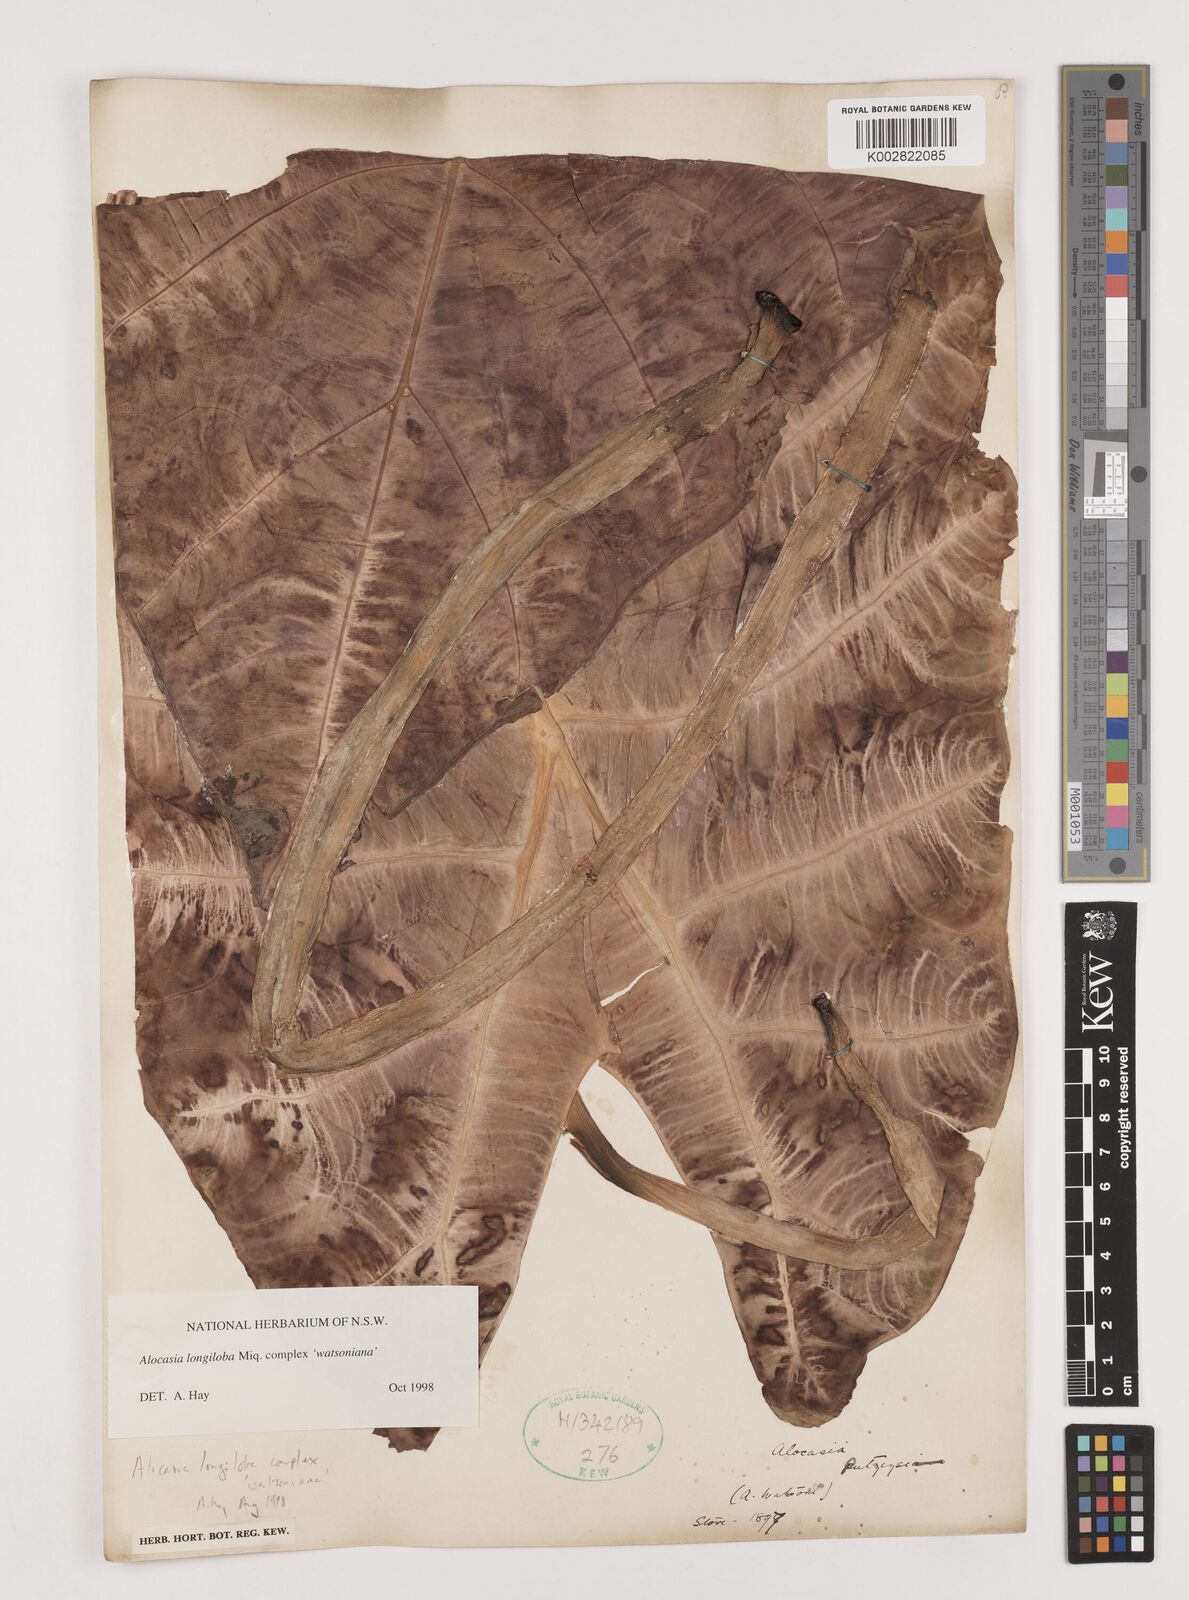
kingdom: Plantae
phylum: Tracheophyta
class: Liliopsida
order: Alismatales
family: Araceae
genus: Alocasia
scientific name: Alocasia longiloba
